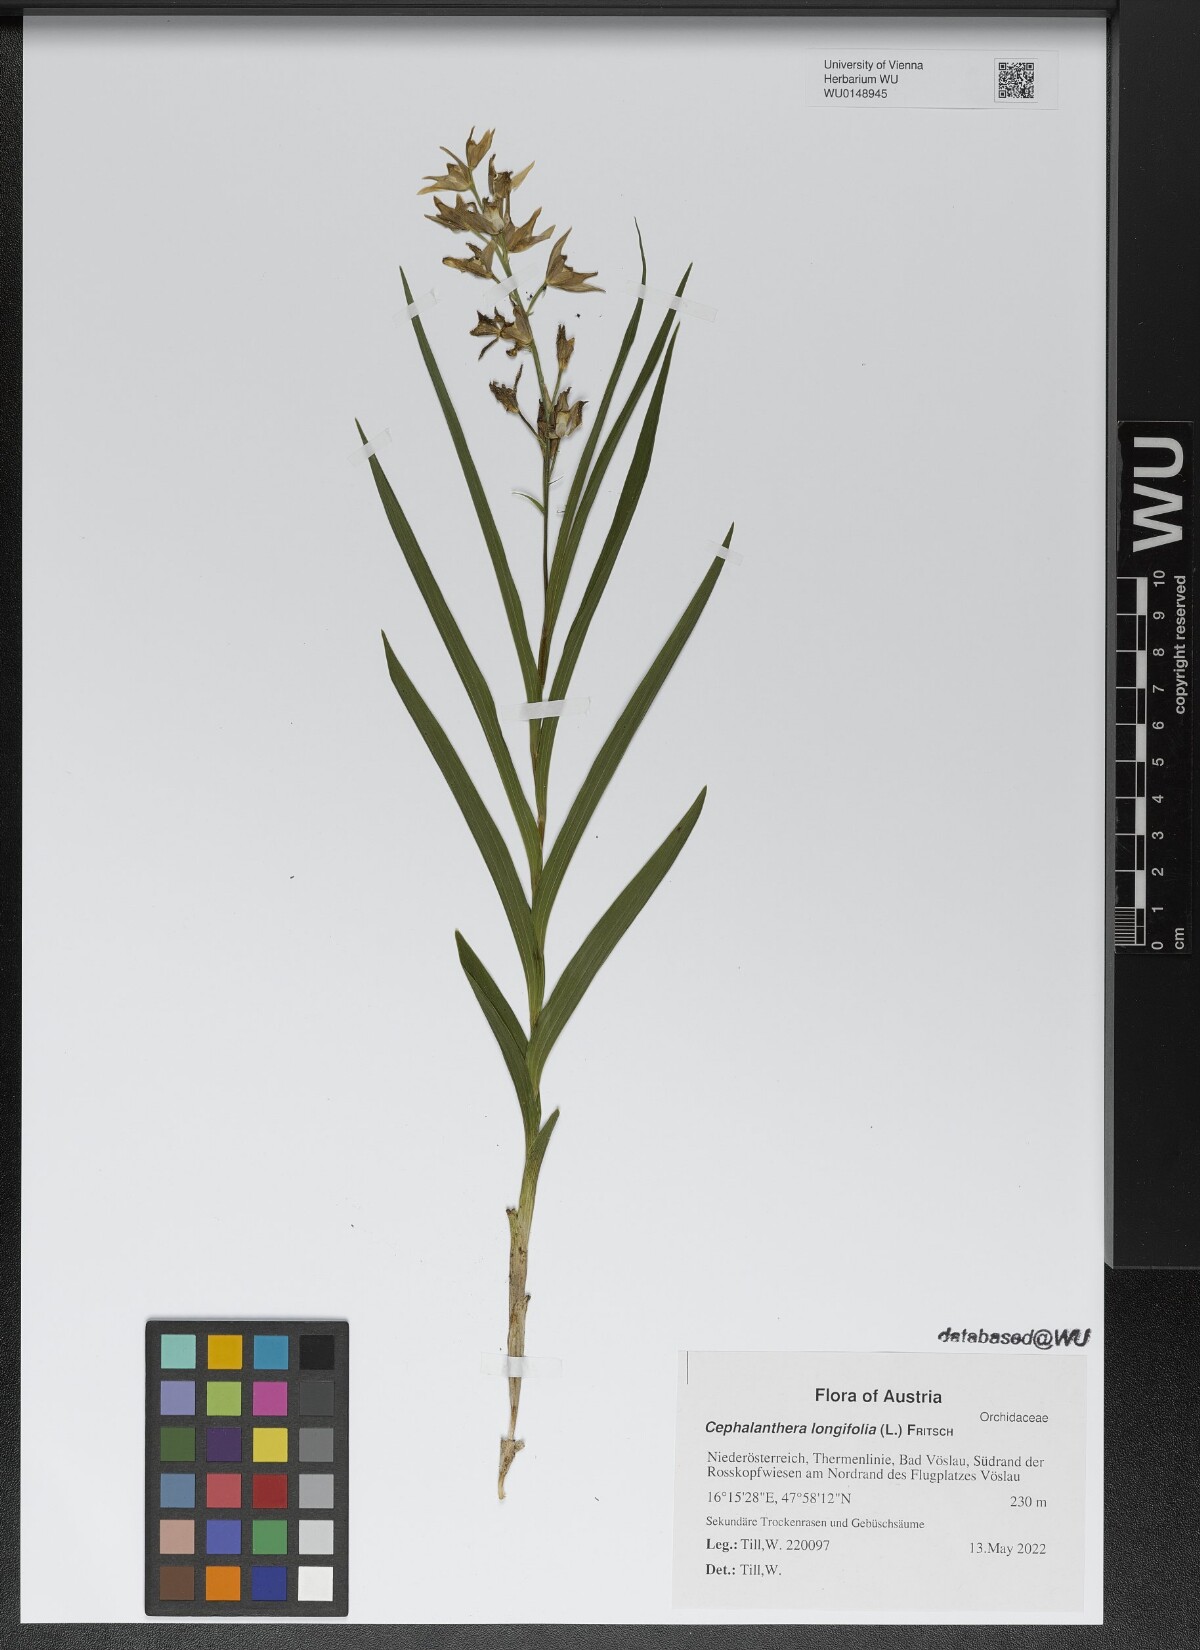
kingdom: Plantae
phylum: Tracheophyta
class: Liliopsida
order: Asparagales
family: Orchidaceae
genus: Cephalanthera
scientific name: Cephalanthera longifolia
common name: Narrow-leaved helleborine
